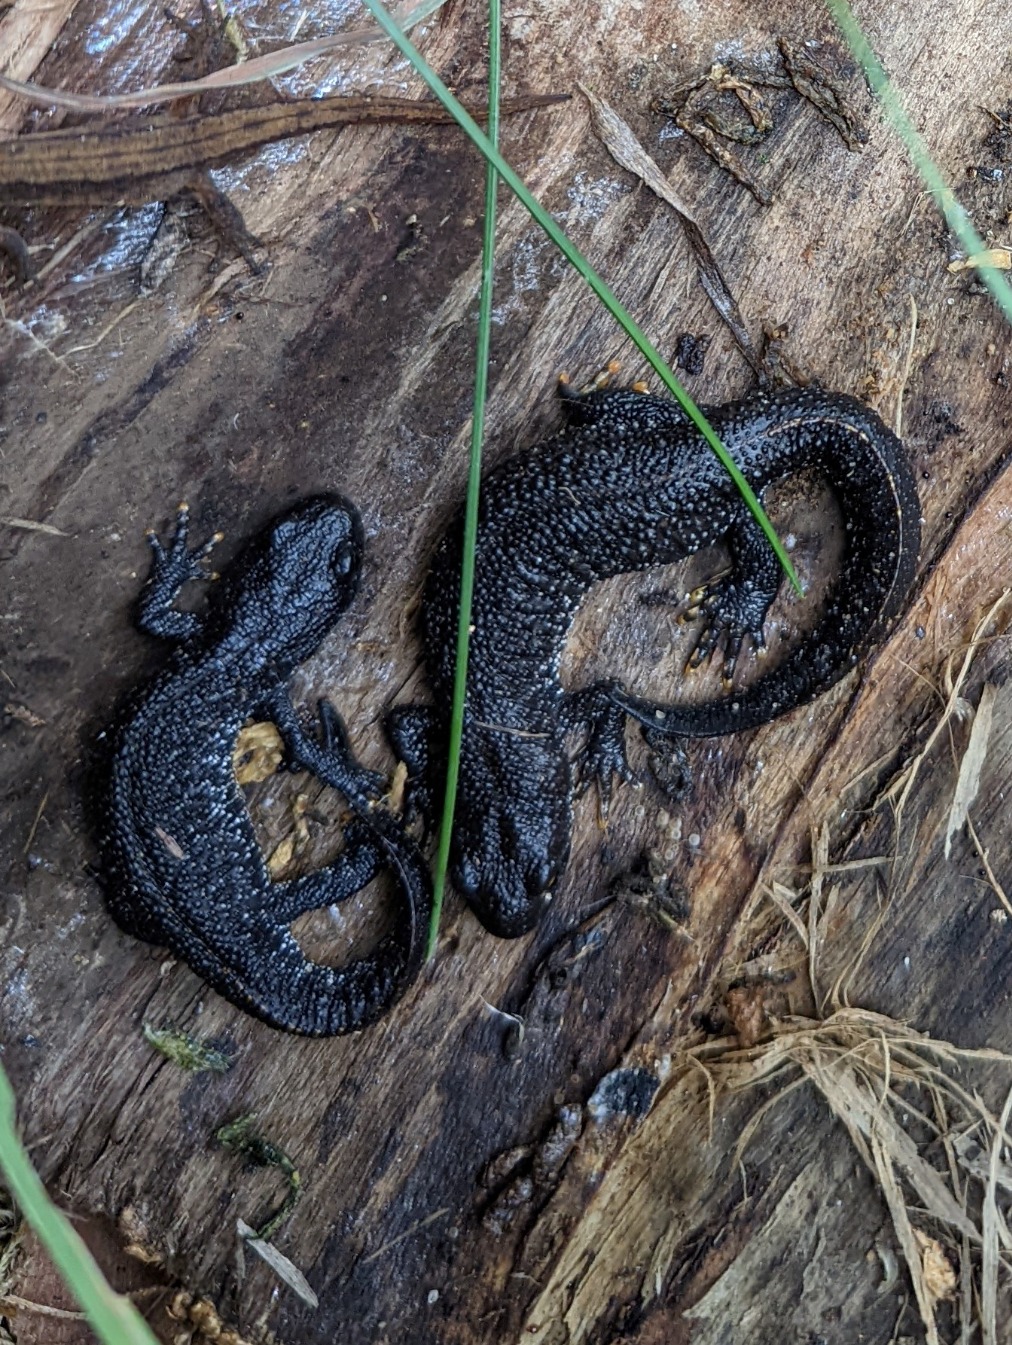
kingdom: Animalia
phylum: Chordata
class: Amphibia
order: Caudata
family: Salamandridae
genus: Triturus
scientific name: Triturus cristatus
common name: Stor vandsalamander
